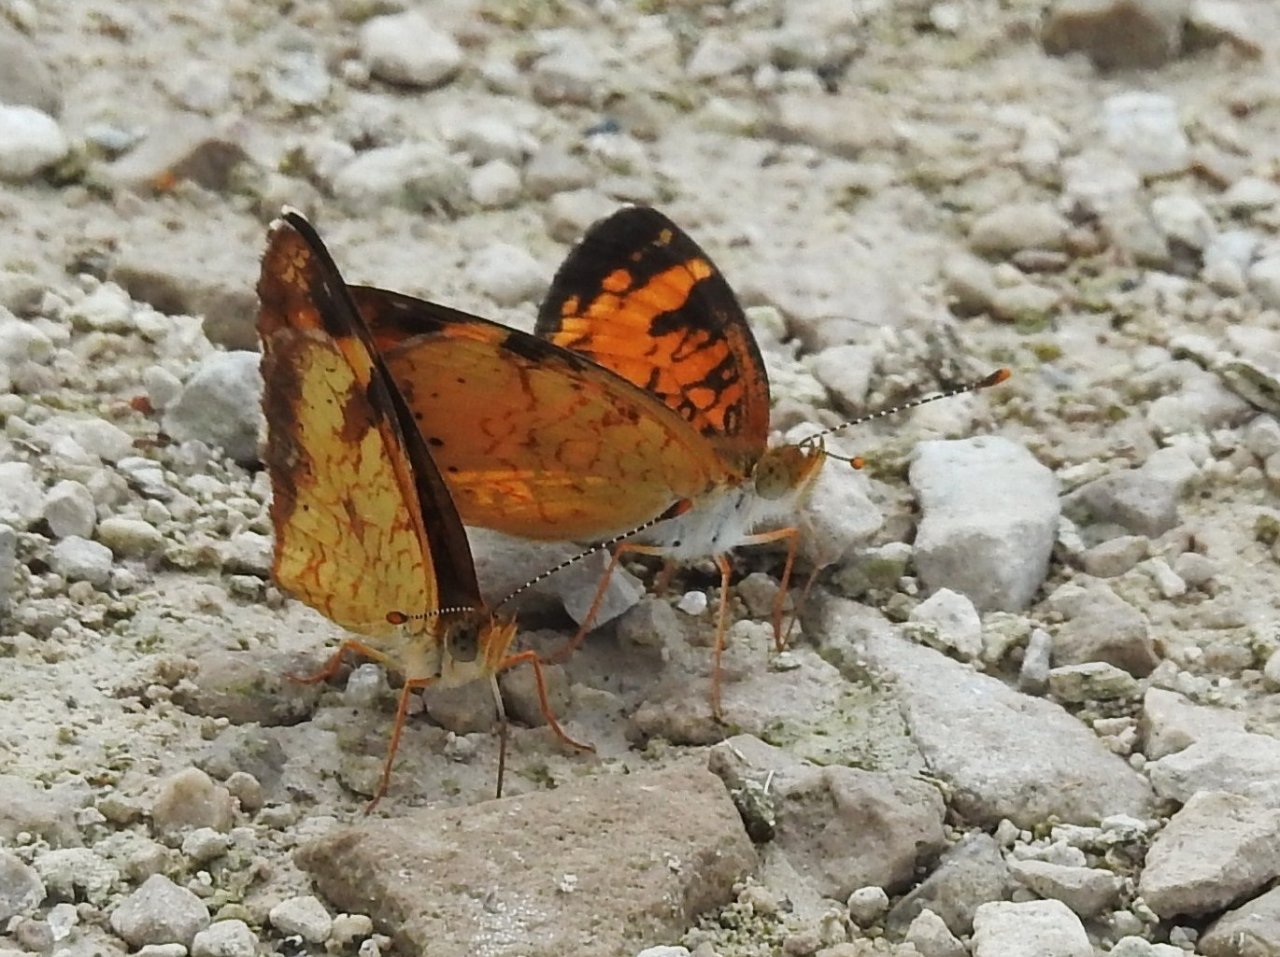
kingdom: Animalia
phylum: Arthropoda
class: Insecta
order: Lepidoptera
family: Nymphalidae
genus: Phyciodes
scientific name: Phyciodes tharos
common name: Northern Crescent
